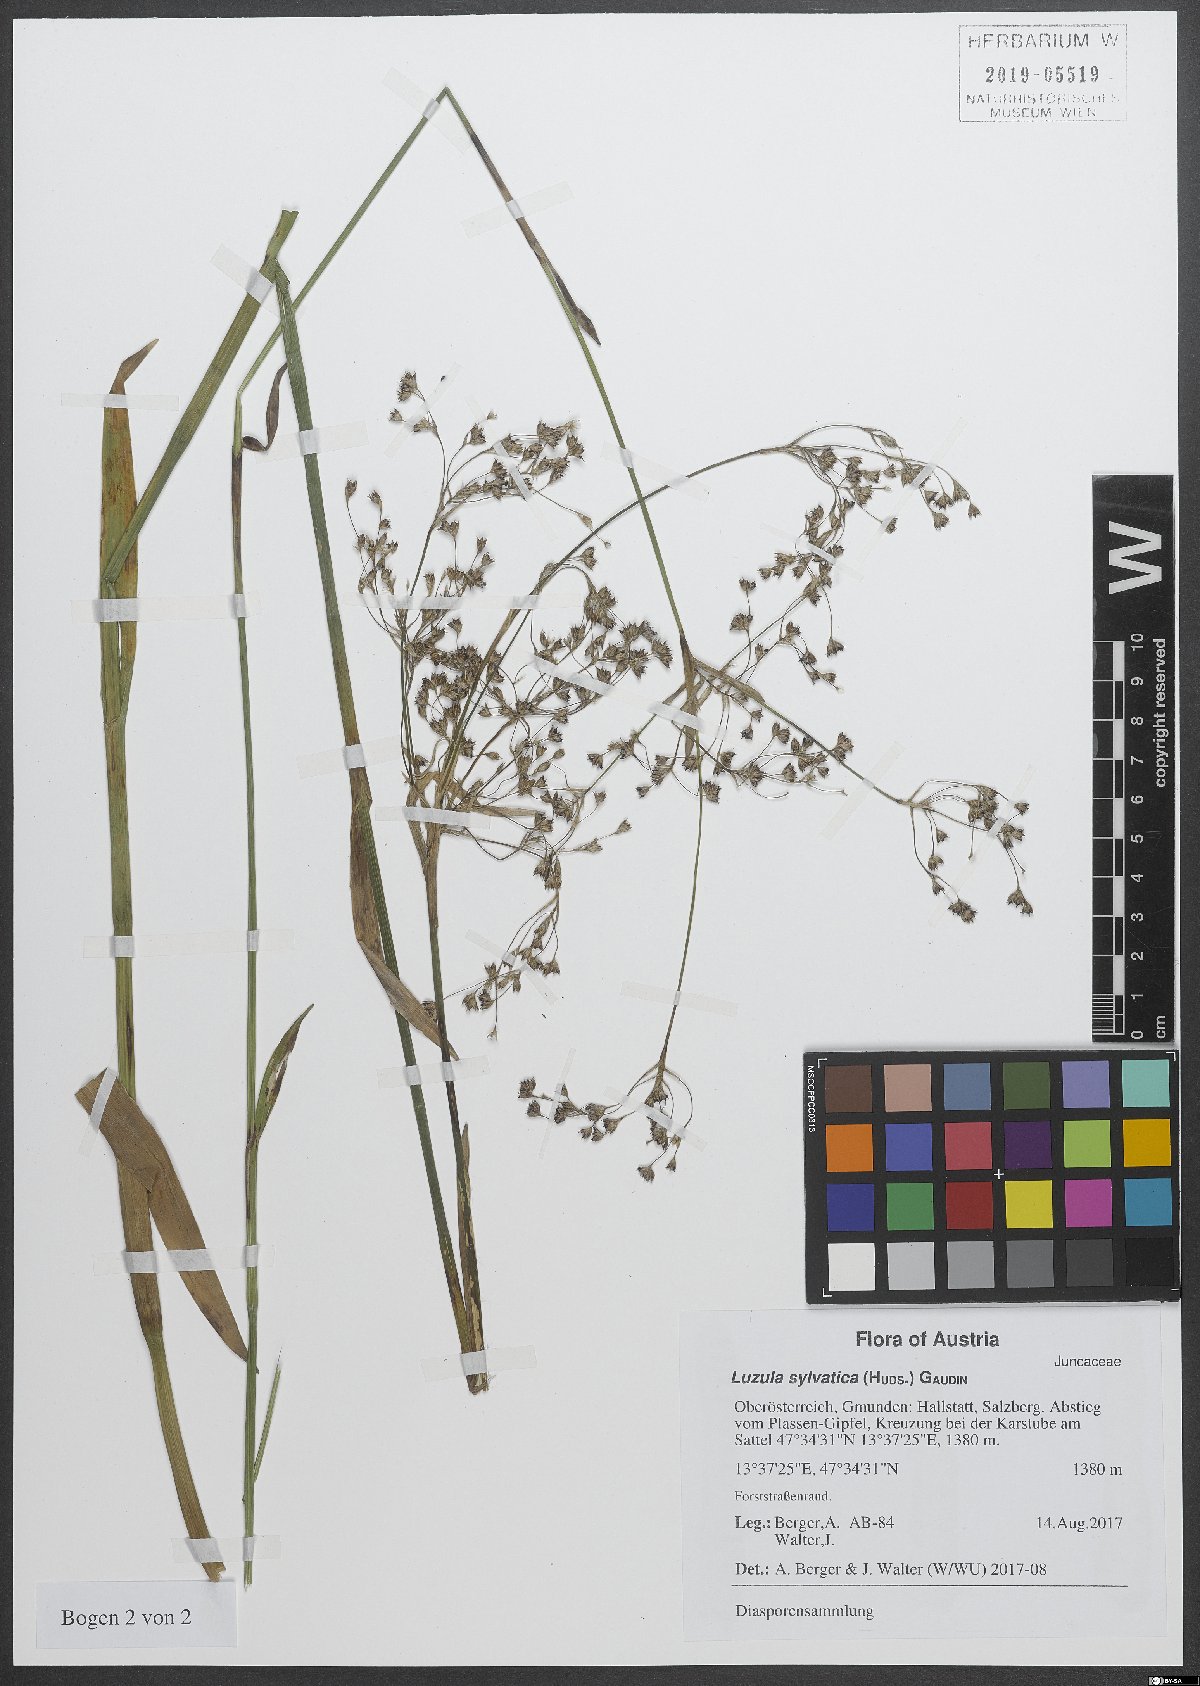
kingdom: Plantae
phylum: Tracheophyta
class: Liliopsida
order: Poales
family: Juncaceae
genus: Luzula
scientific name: Luzula sylvatica
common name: Great wood-rush
